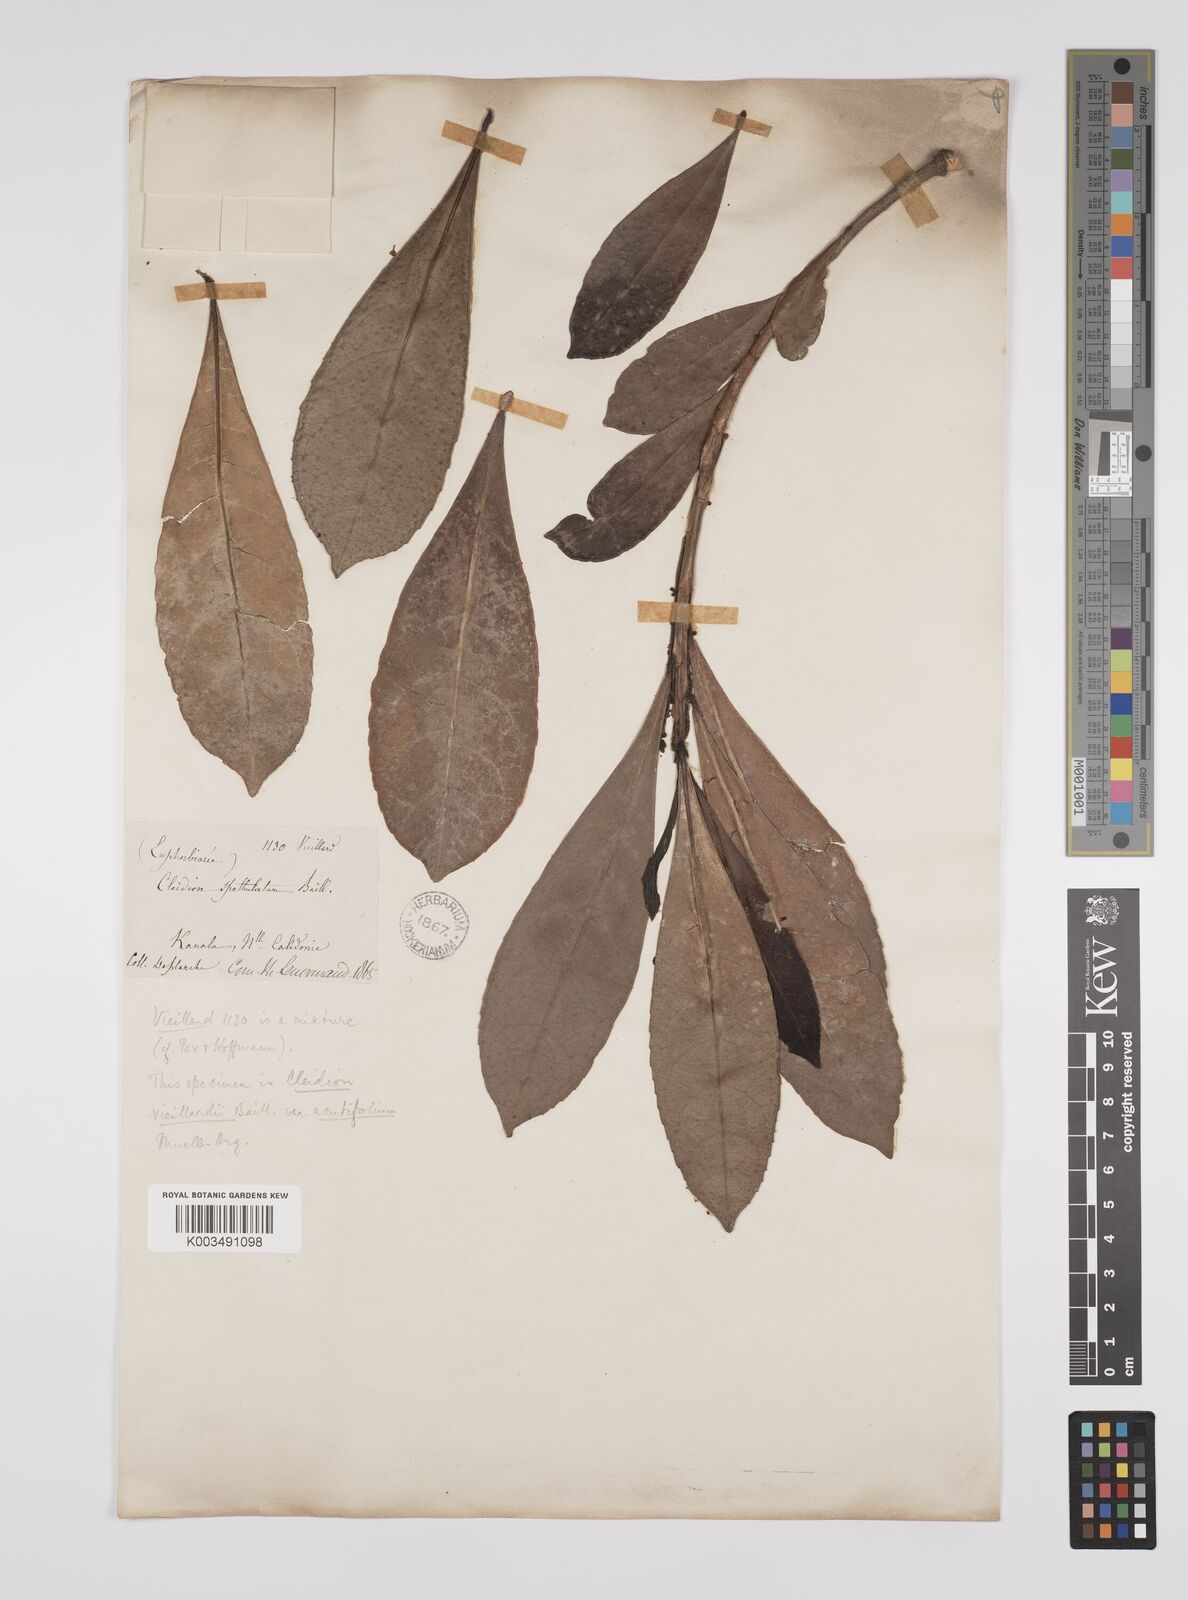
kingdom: Plantae
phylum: Tracheophyta
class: Magnoliopsida
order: Malpighiales
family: Euphorbiaceae
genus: Cleidion
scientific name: Cleidion vieillardii
